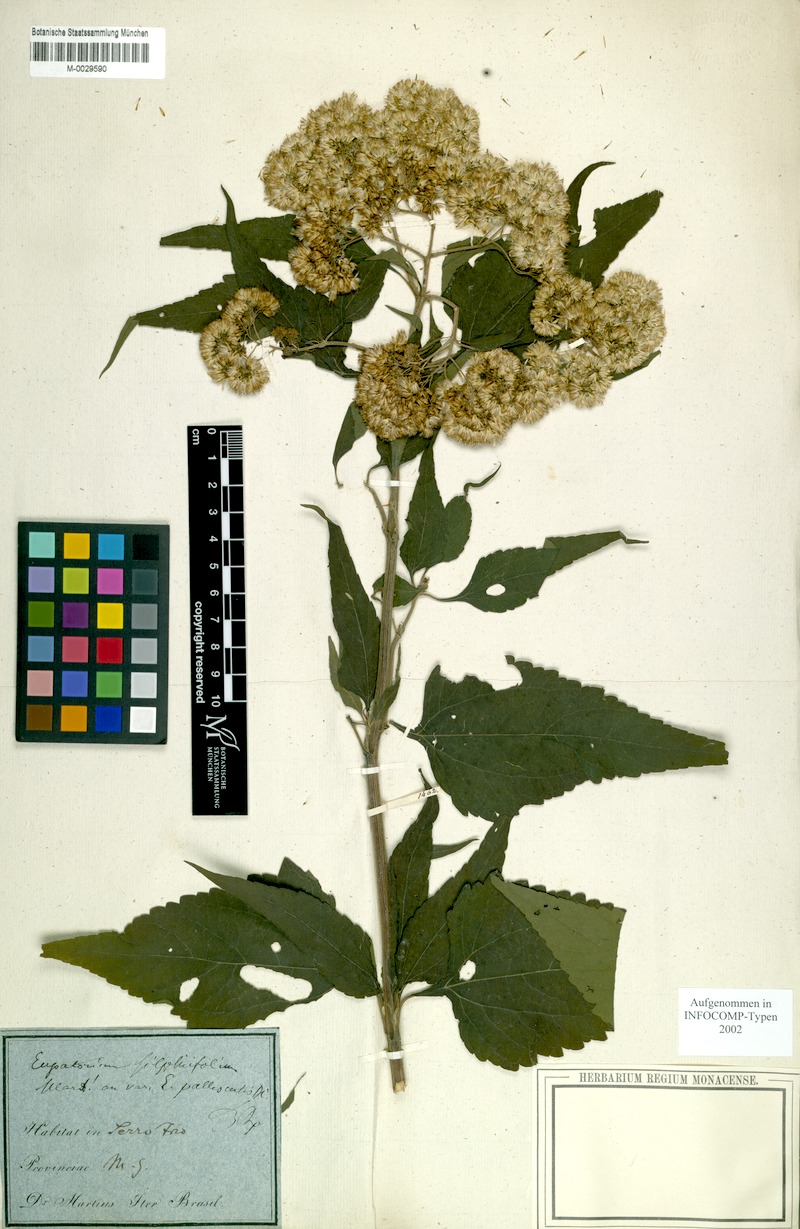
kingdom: Plantae
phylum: Tracheophyta
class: Magnoliopsida
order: Asterales
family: Asteraceae
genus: Austroeupatorium
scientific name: Austroeupatorium silphiifolium
